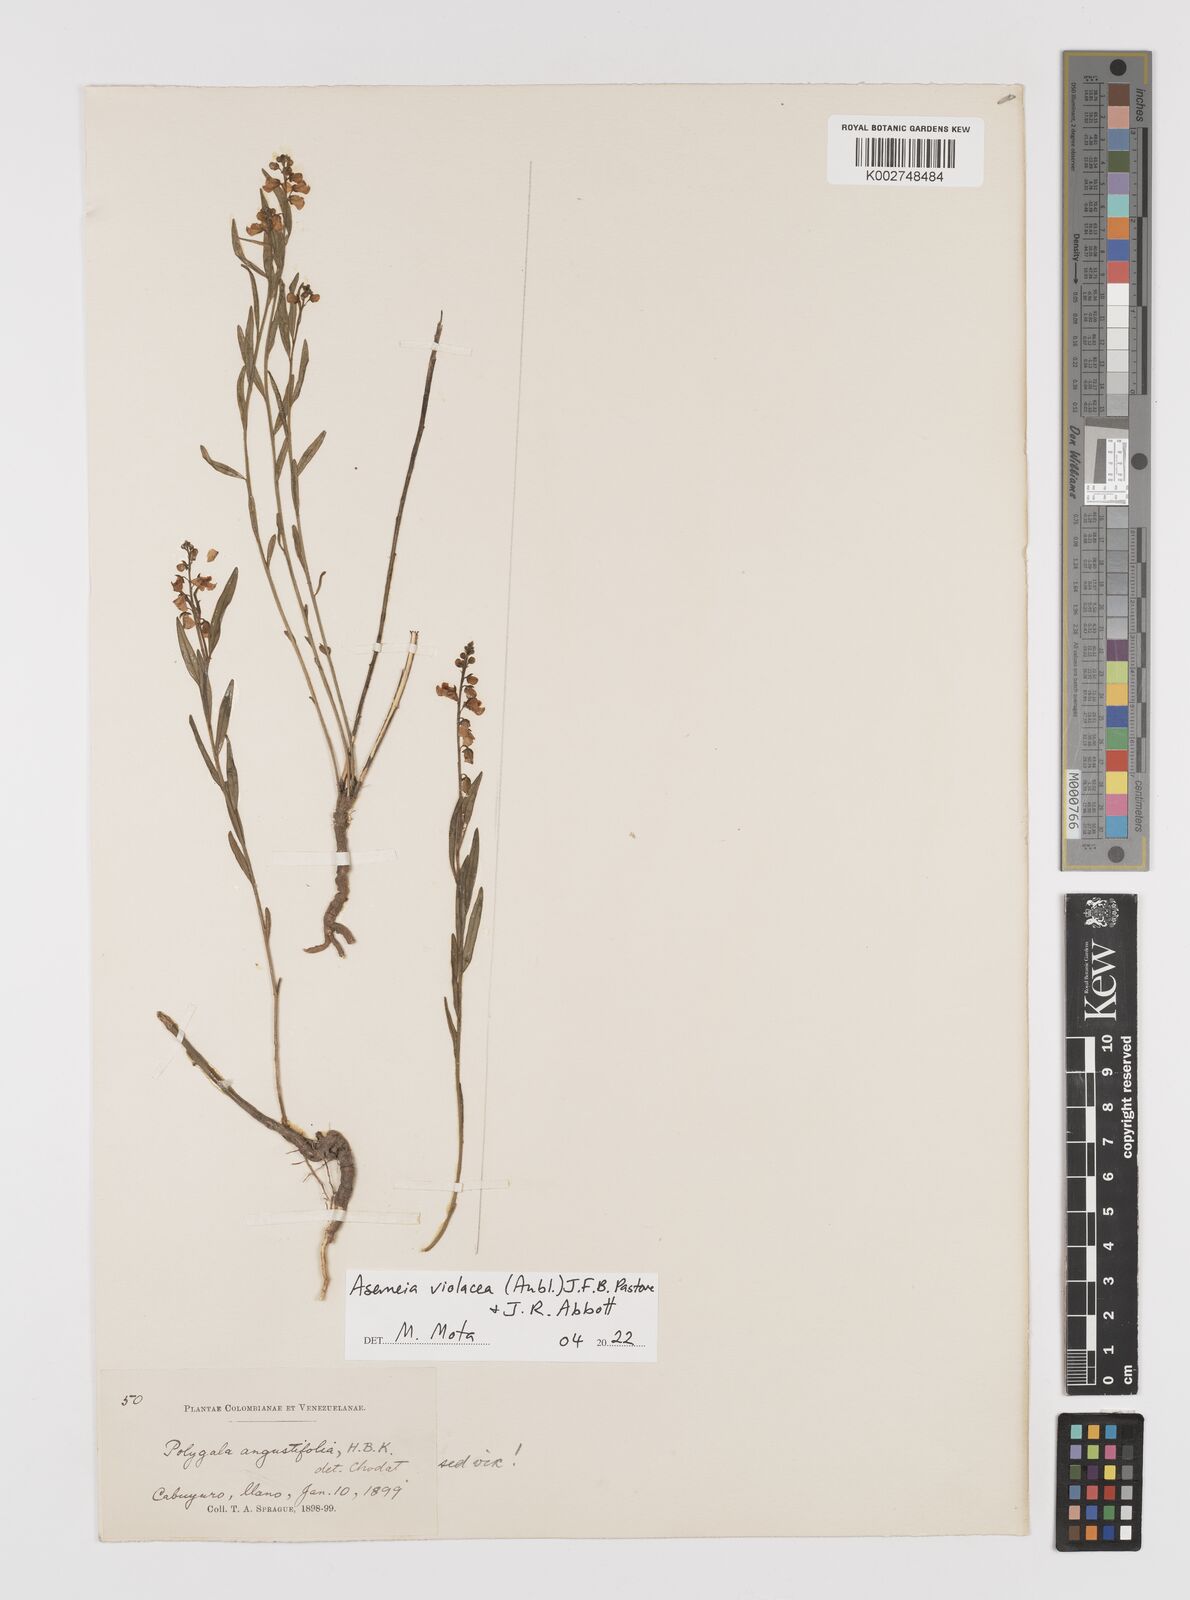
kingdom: Plantae
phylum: Tracheophyta
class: Magnoliopsida
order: Fabales
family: Polygalaceae
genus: Asemeia
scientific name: Asemeia violacea
